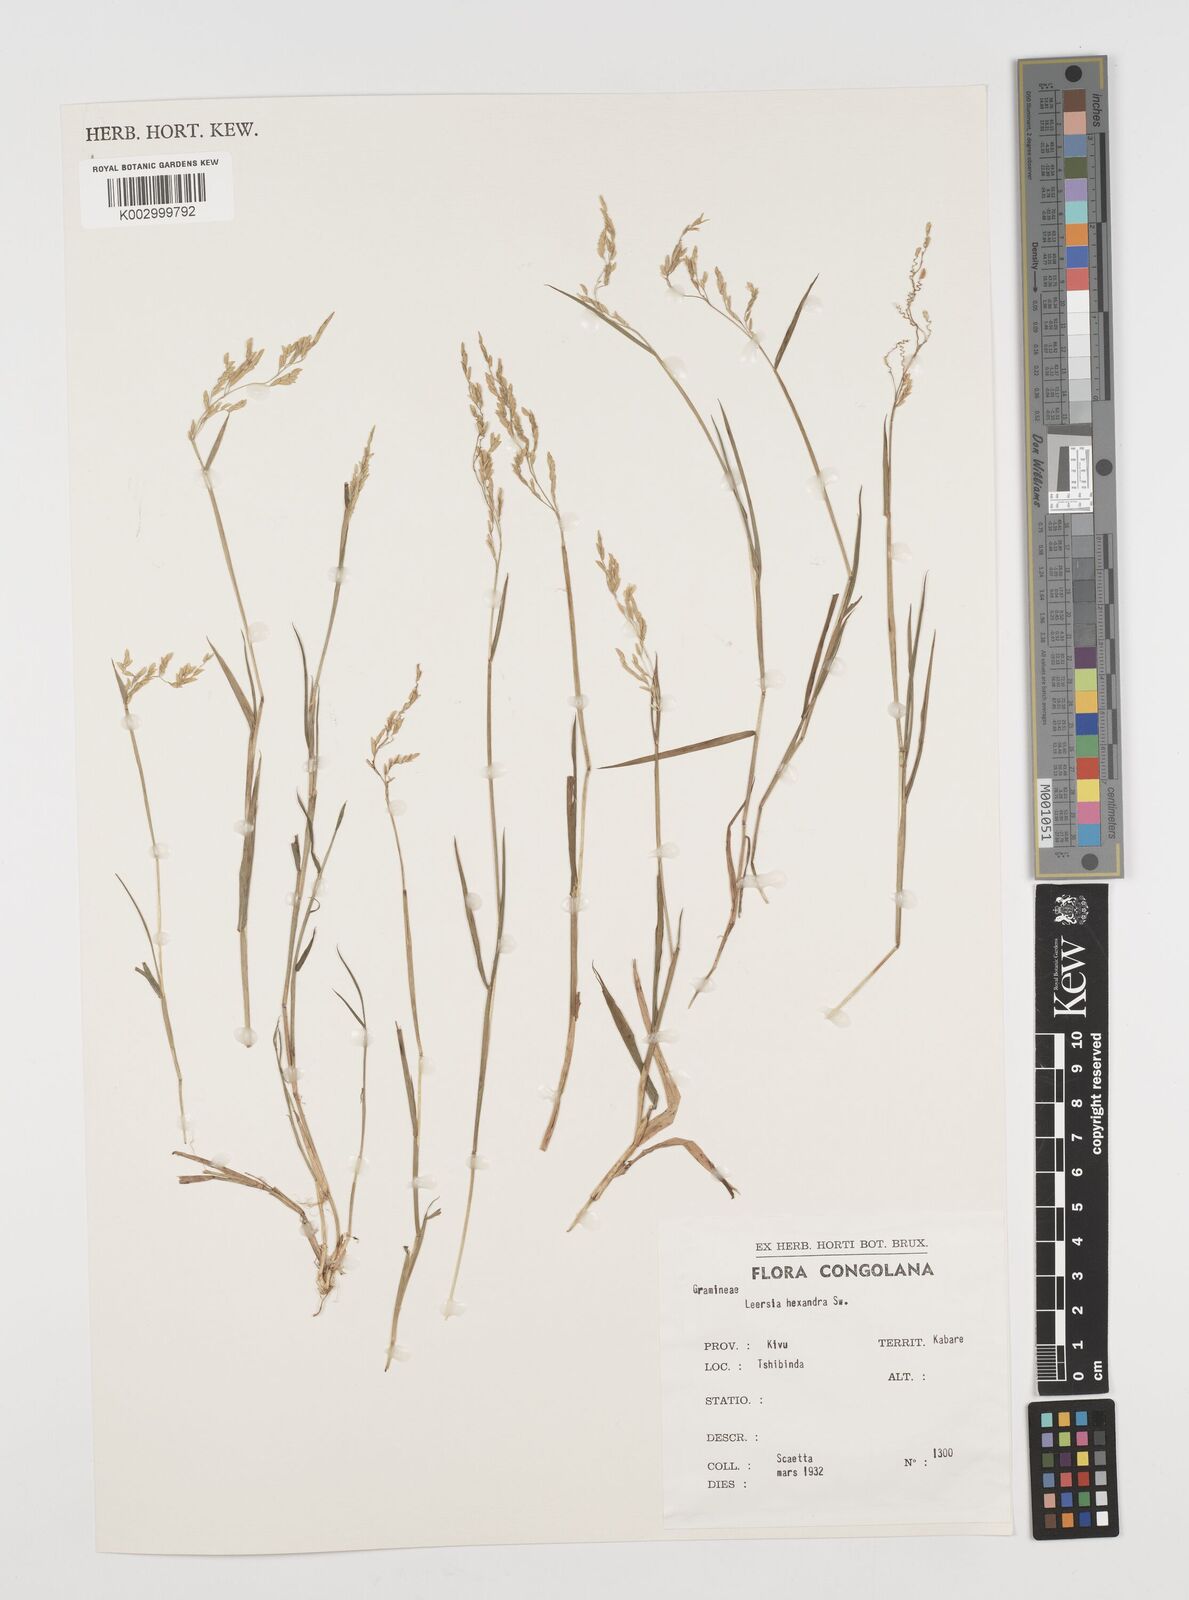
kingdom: Plantae
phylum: Tracheophyta
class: Liliopsida
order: Poales
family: Poaceae
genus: Leersia
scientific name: Leersia hexandra
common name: Southern cut grass
